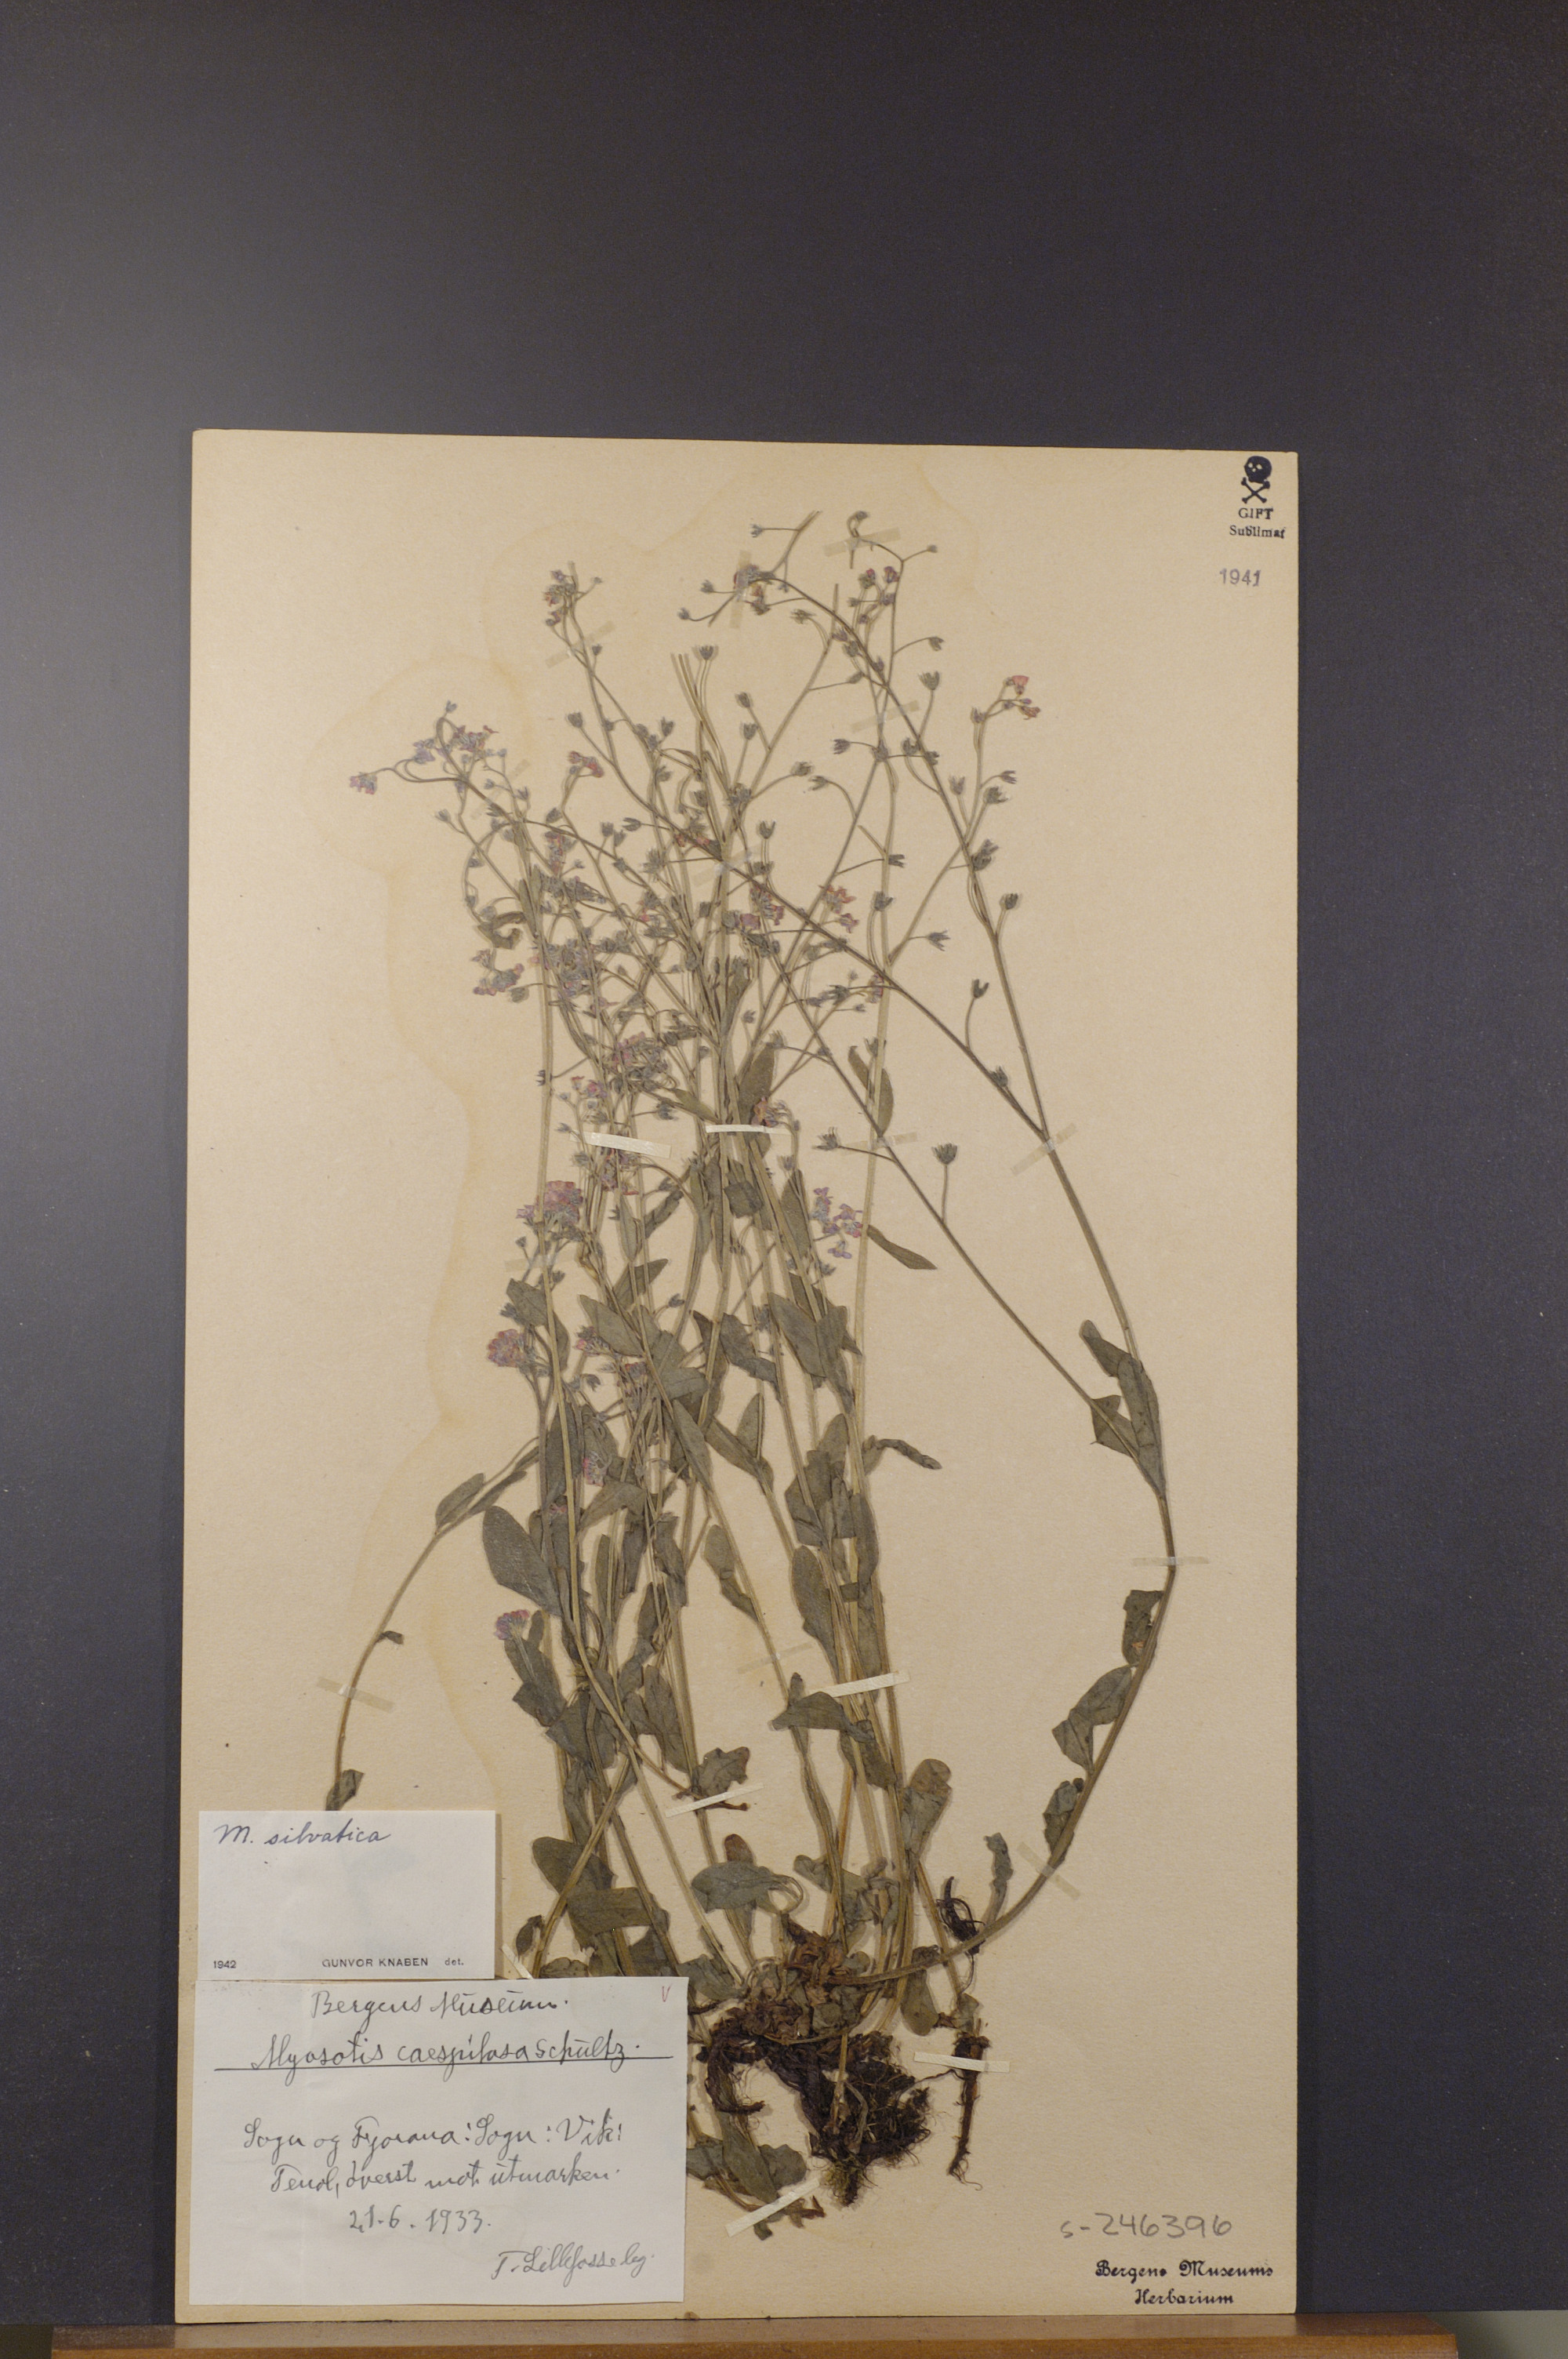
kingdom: Plantae
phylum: Tracheophyta
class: Magnoliopsida
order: Boraginales
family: Boraginaceae
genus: Myosotis
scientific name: Myosotis decumbens
